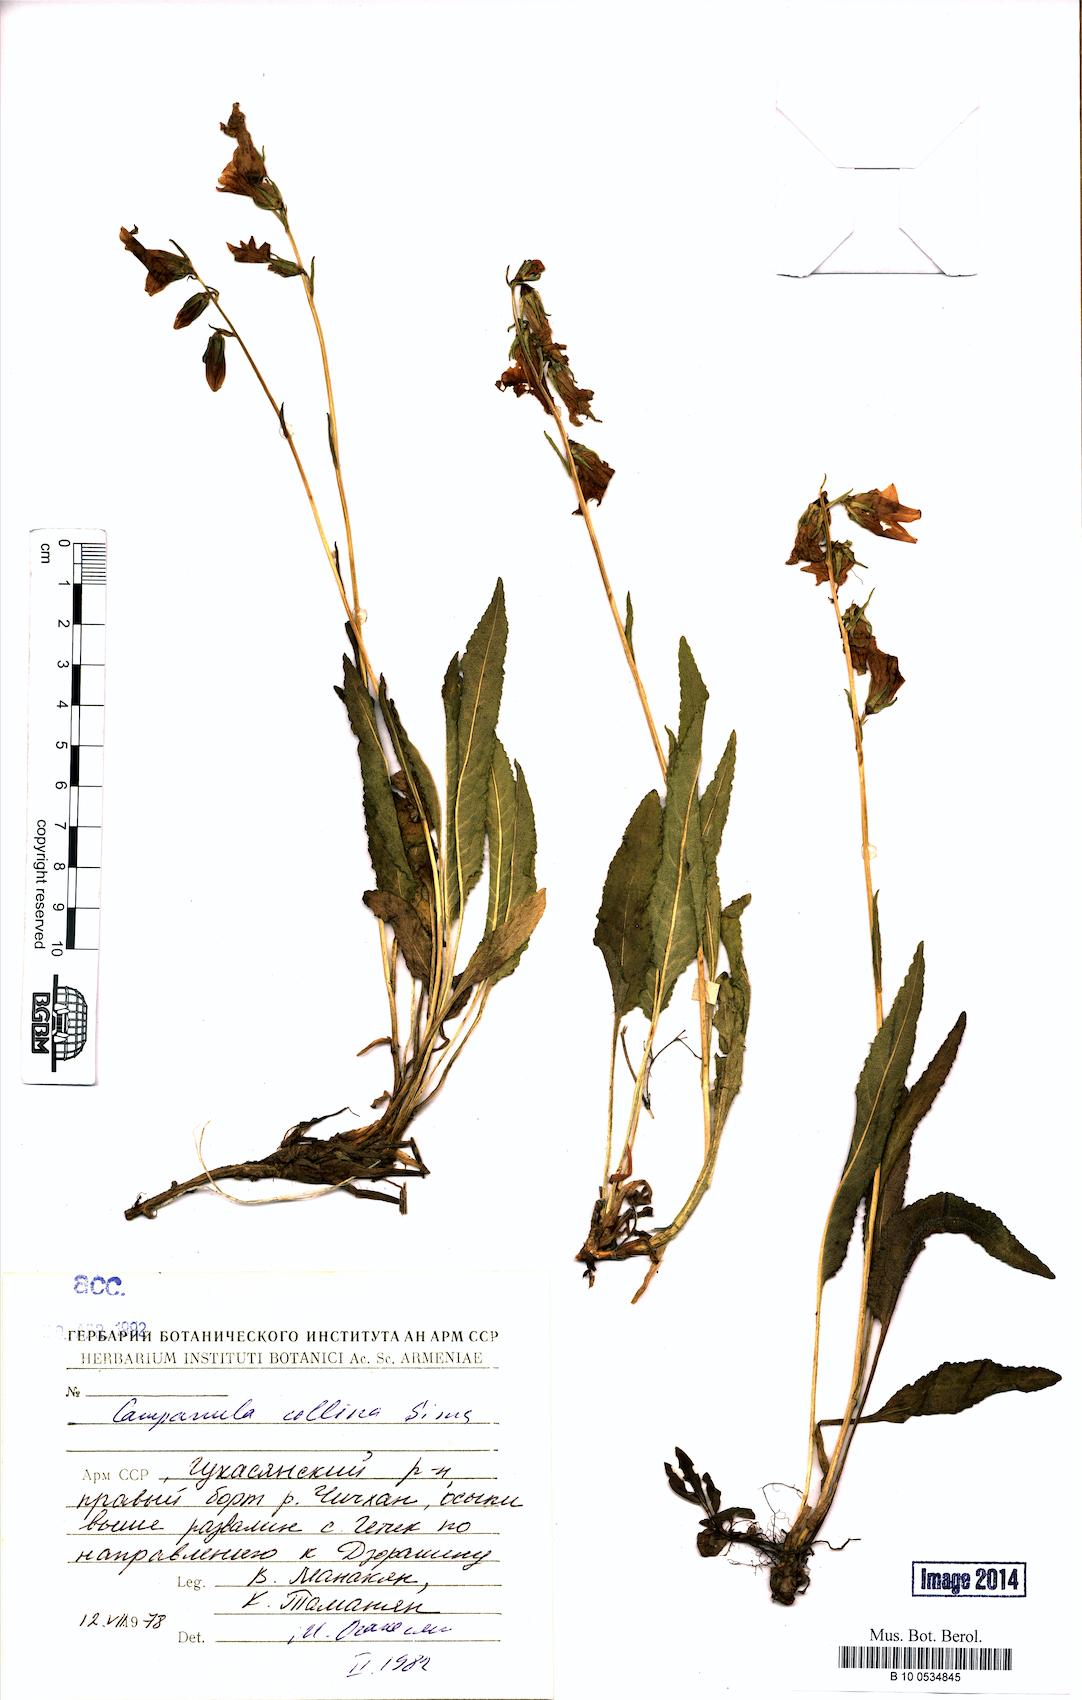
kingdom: Plantae
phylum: Tracheophyta
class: Magnoliopsida
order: Asterales
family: Campanulaceae
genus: Campanula
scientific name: Campanula collina
